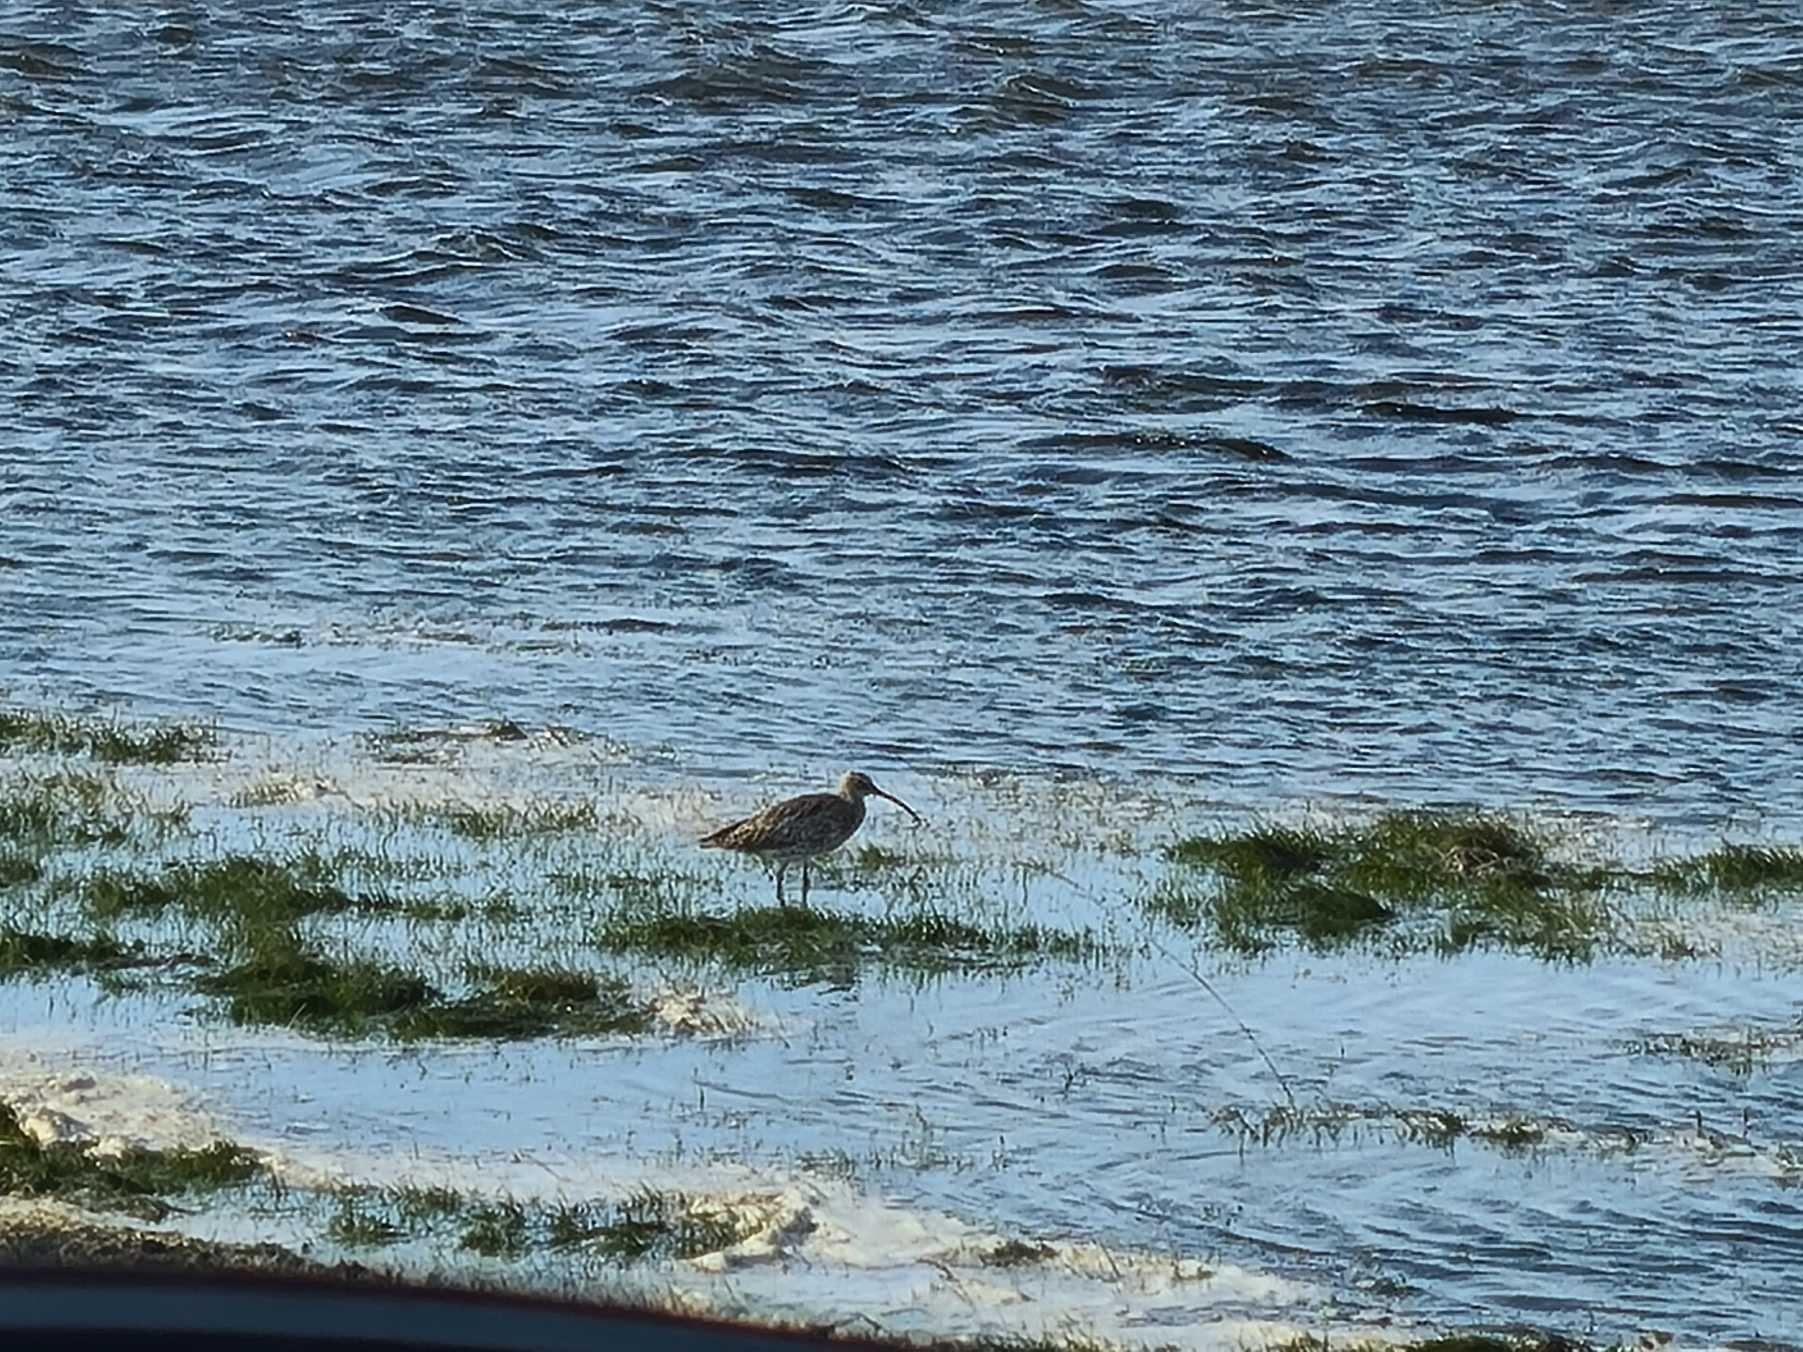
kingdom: Animalia
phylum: Chordata
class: Aves
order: Charadriiformes
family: Scolopacidae
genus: Numenius
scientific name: Numenius arquata
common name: Storspove
